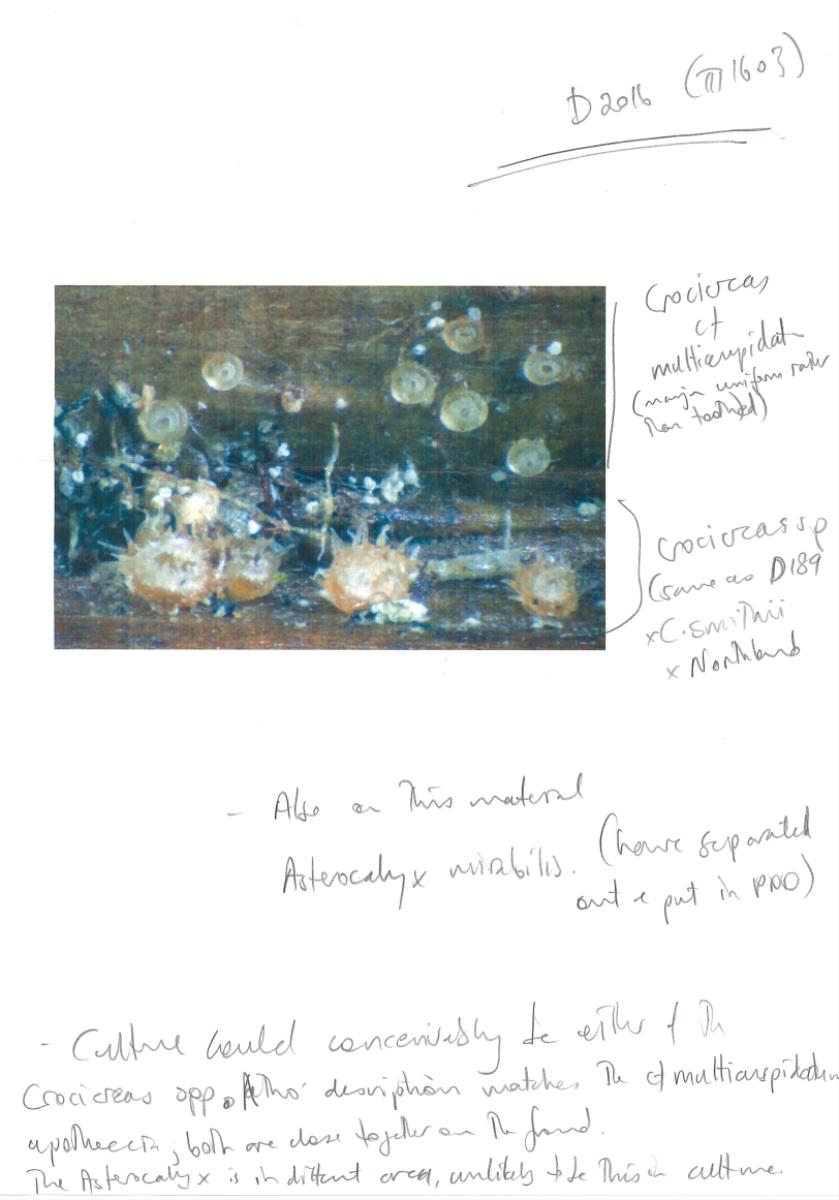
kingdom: Fungi
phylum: Ascomycota
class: Leotiomycetes
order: Helotiales
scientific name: Helotiales
